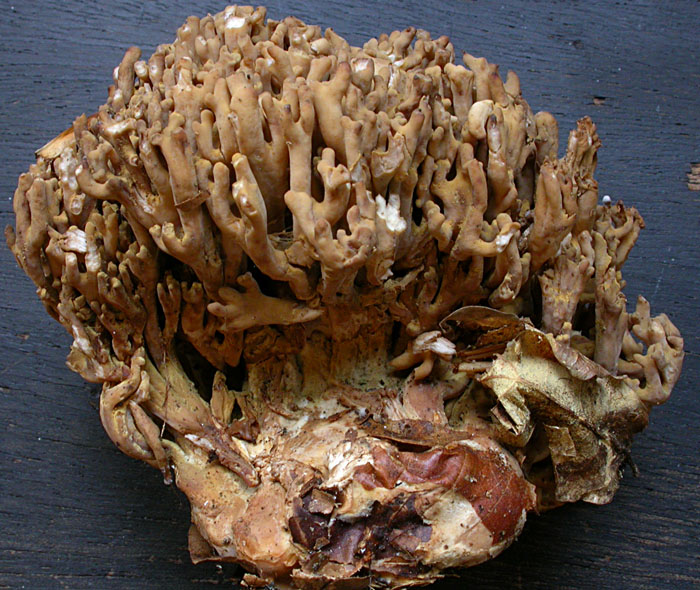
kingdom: Fungi
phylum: Basidiomycota
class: Agaricomycetes
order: Gomphales
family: Gomphaceae
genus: Ramaria
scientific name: Ramaria
